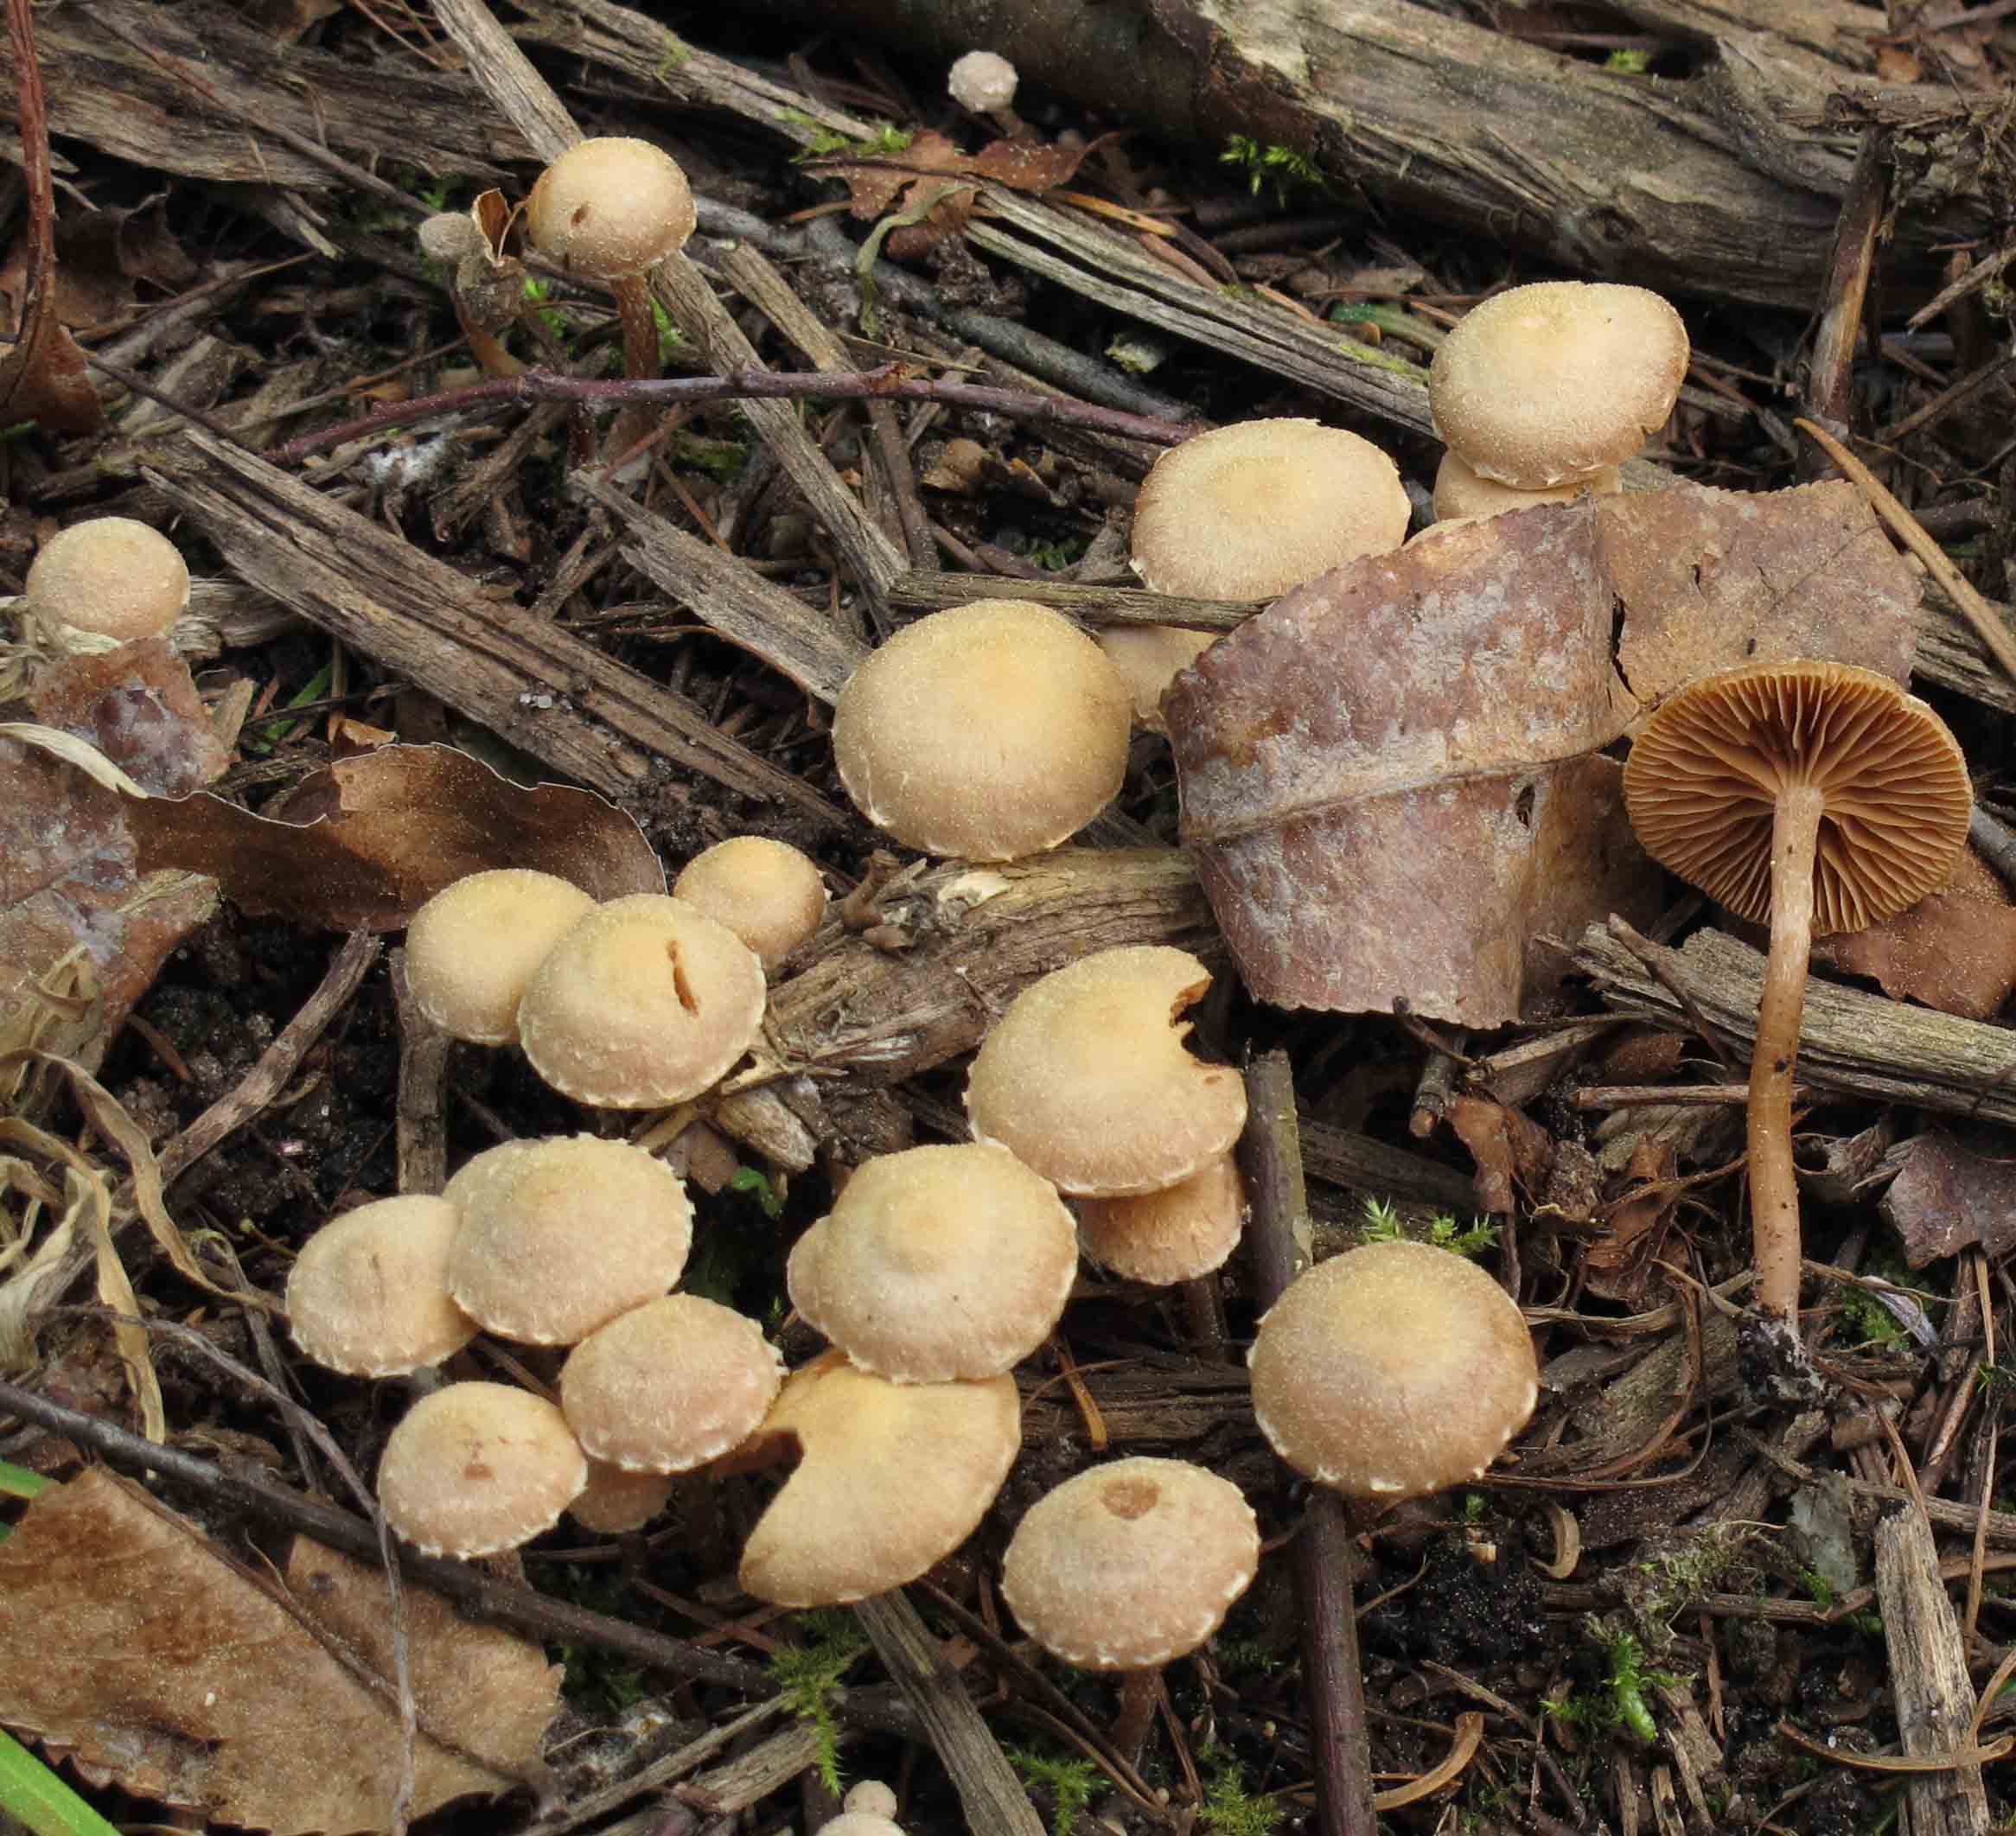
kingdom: Fungi
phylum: Basidiomycota
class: Agaricomycetes
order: Agaricales
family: Tubariaceae
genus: Tubaria
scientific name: Tubaria conspersa
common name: bleg fnughat
